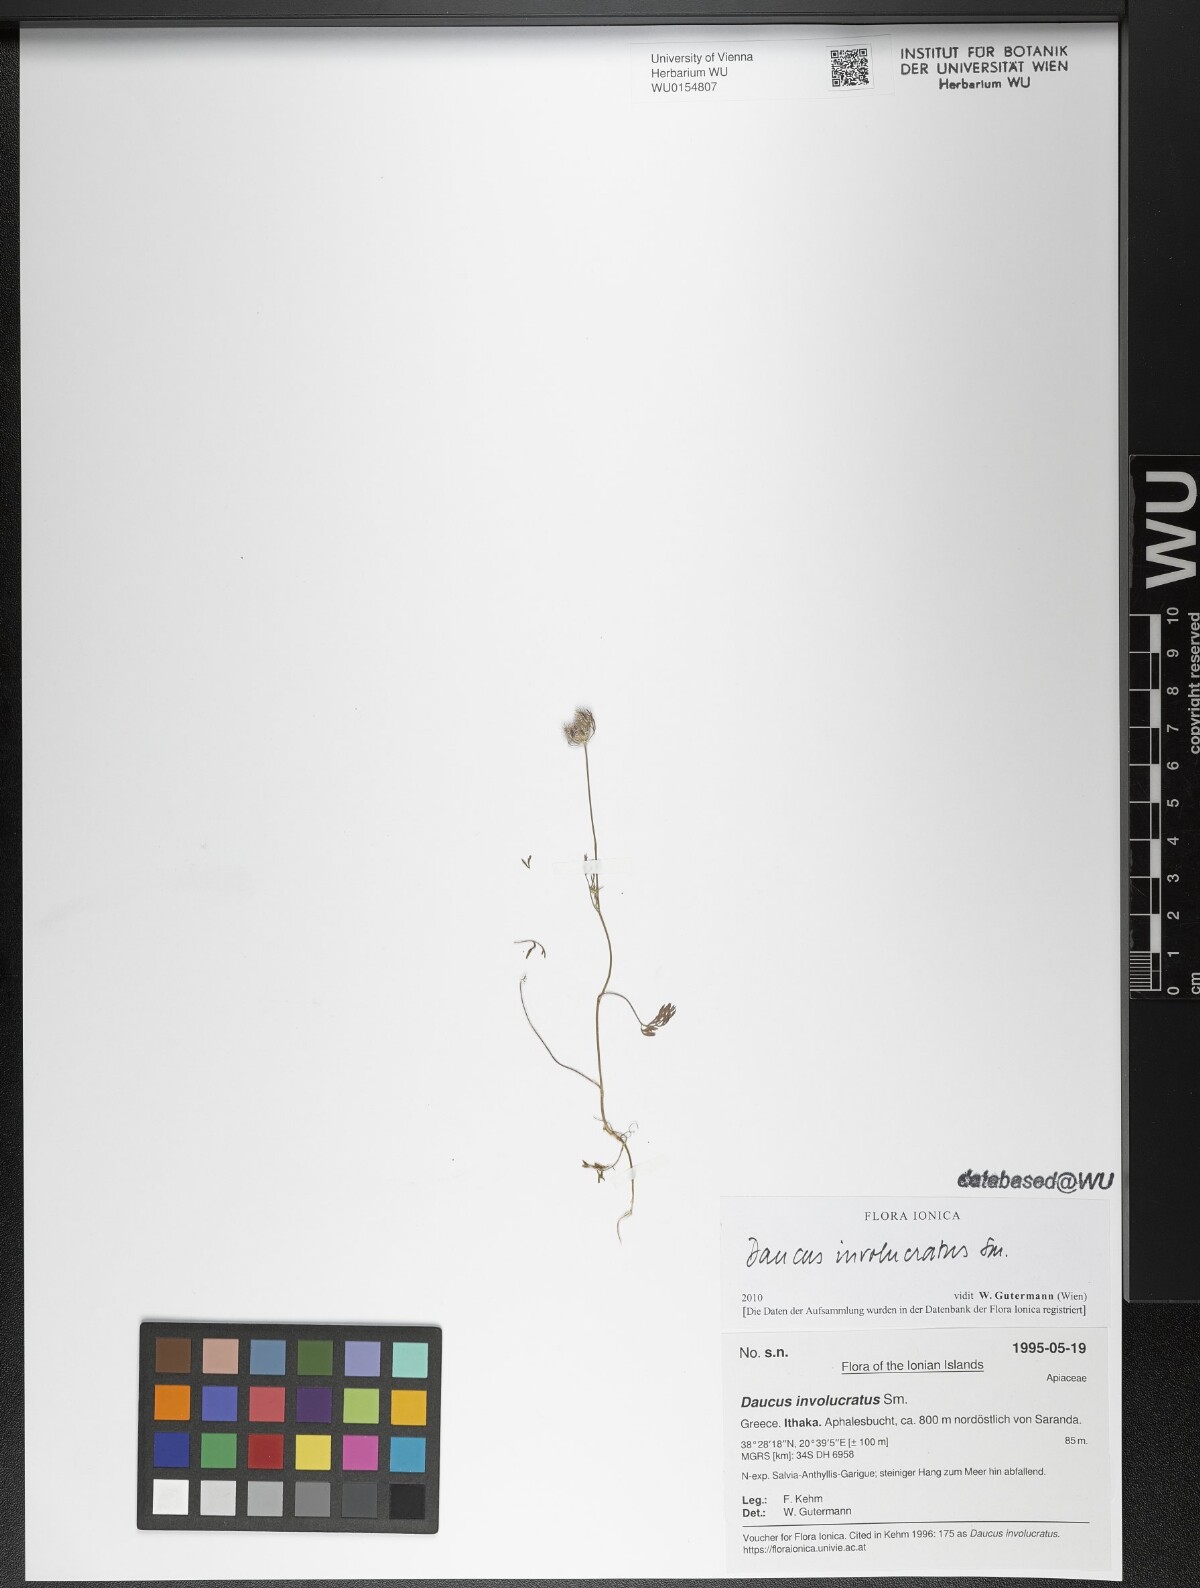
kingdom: Plantae
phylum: Tracheophyta
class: Magnoliopsida
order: Apiales
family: Apiaceae
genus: Daucus
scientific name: Daucus involucratus
